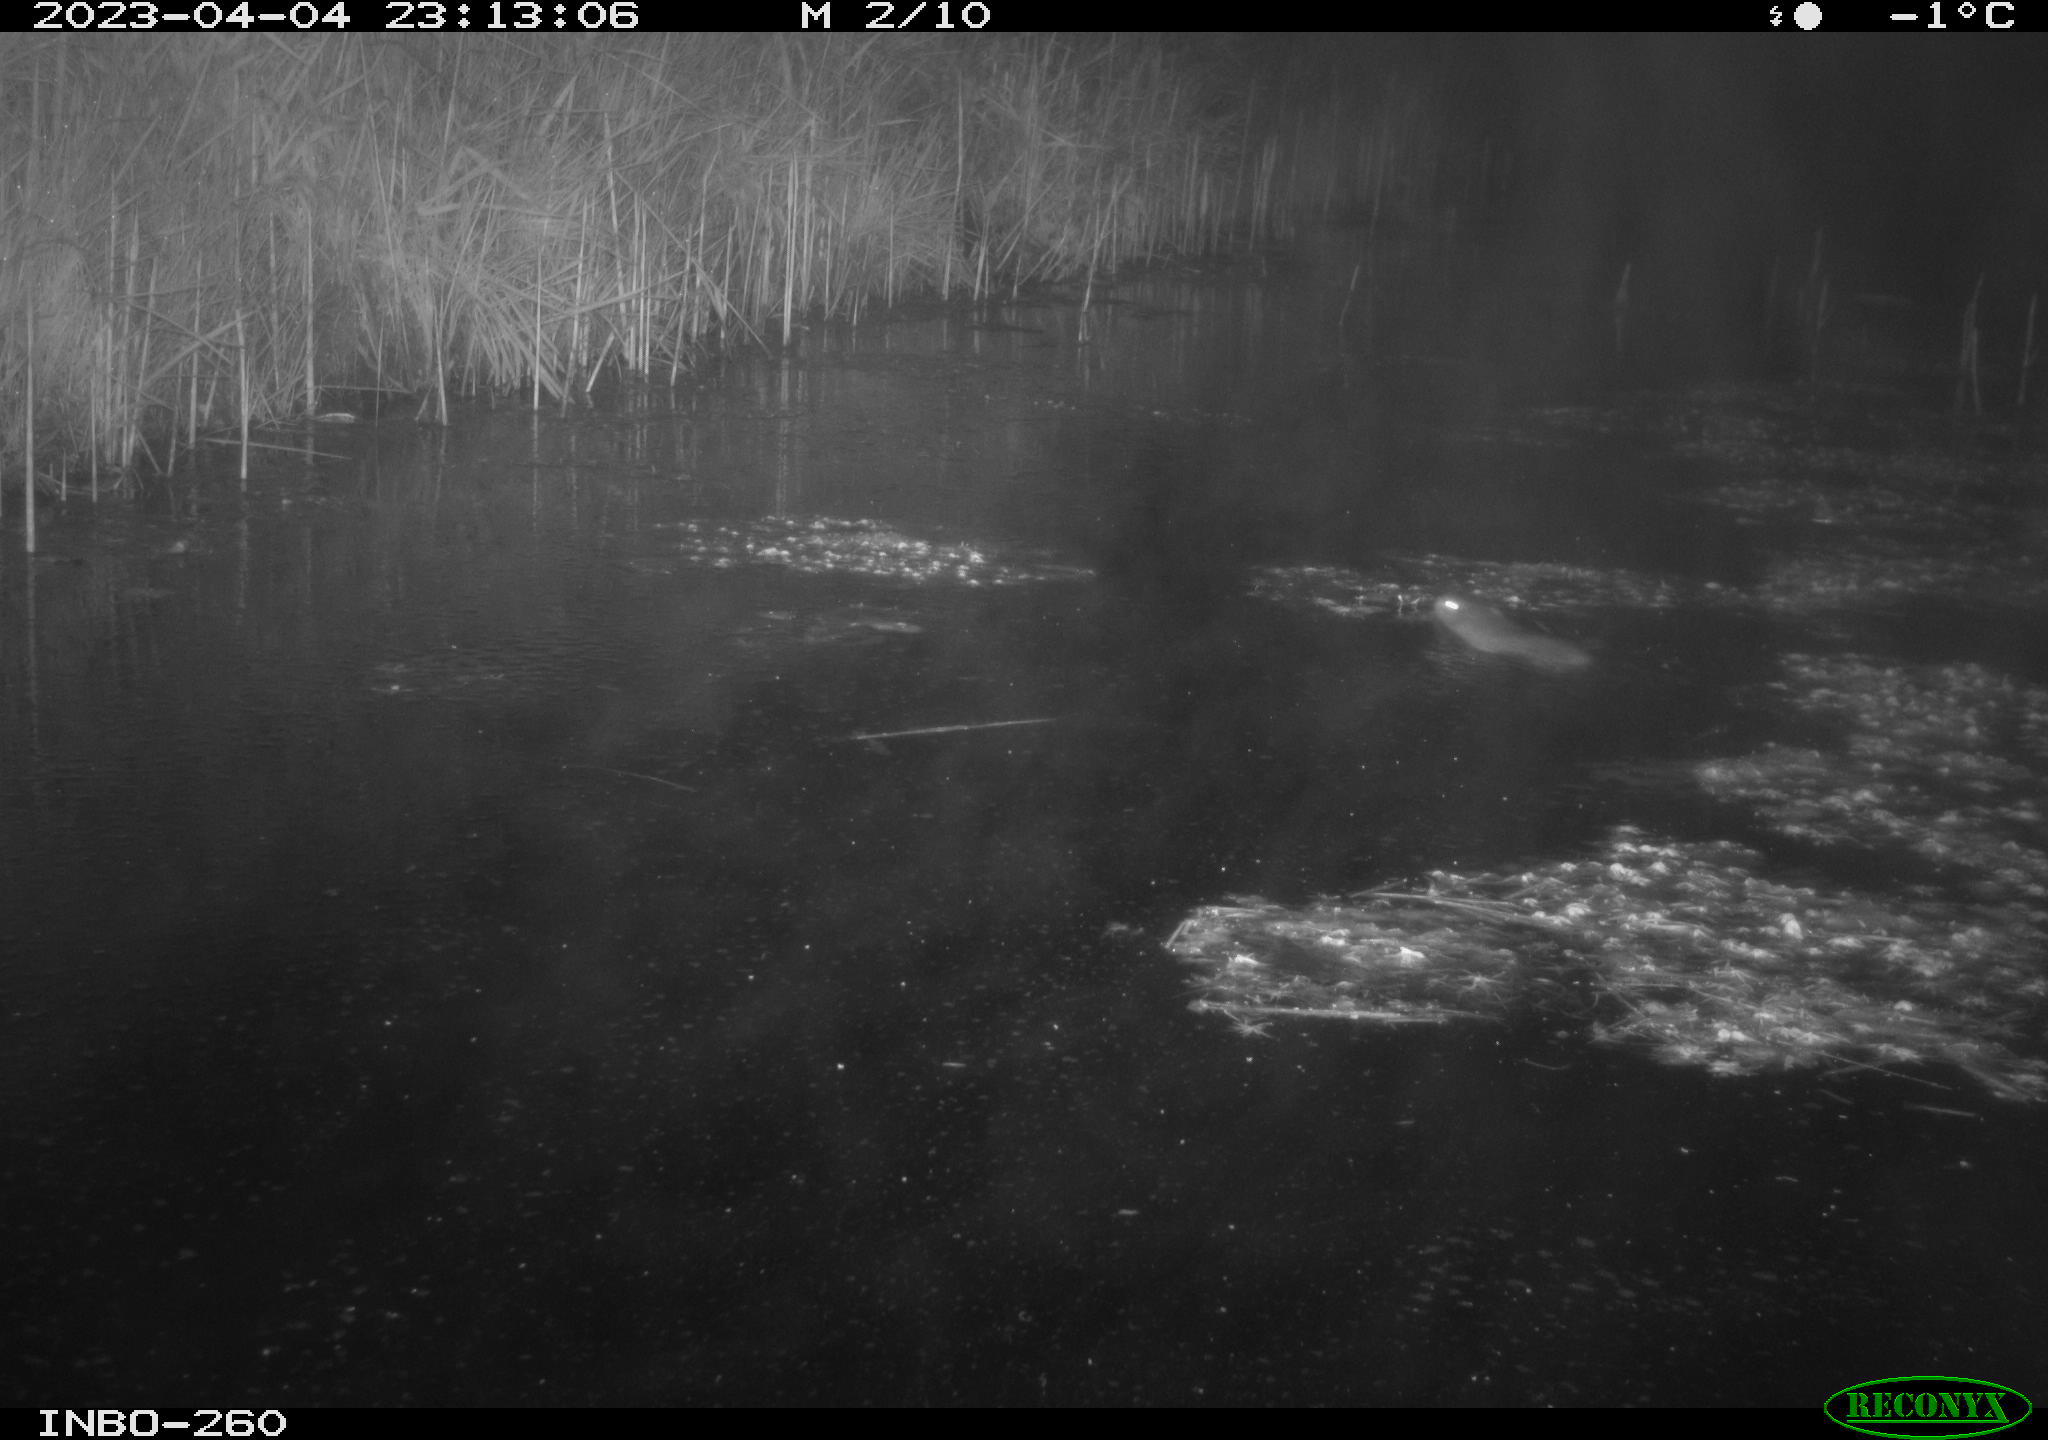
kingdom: Animalia
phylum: Chordata
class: Mammalia
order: Rodentia
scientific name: Rodentia
